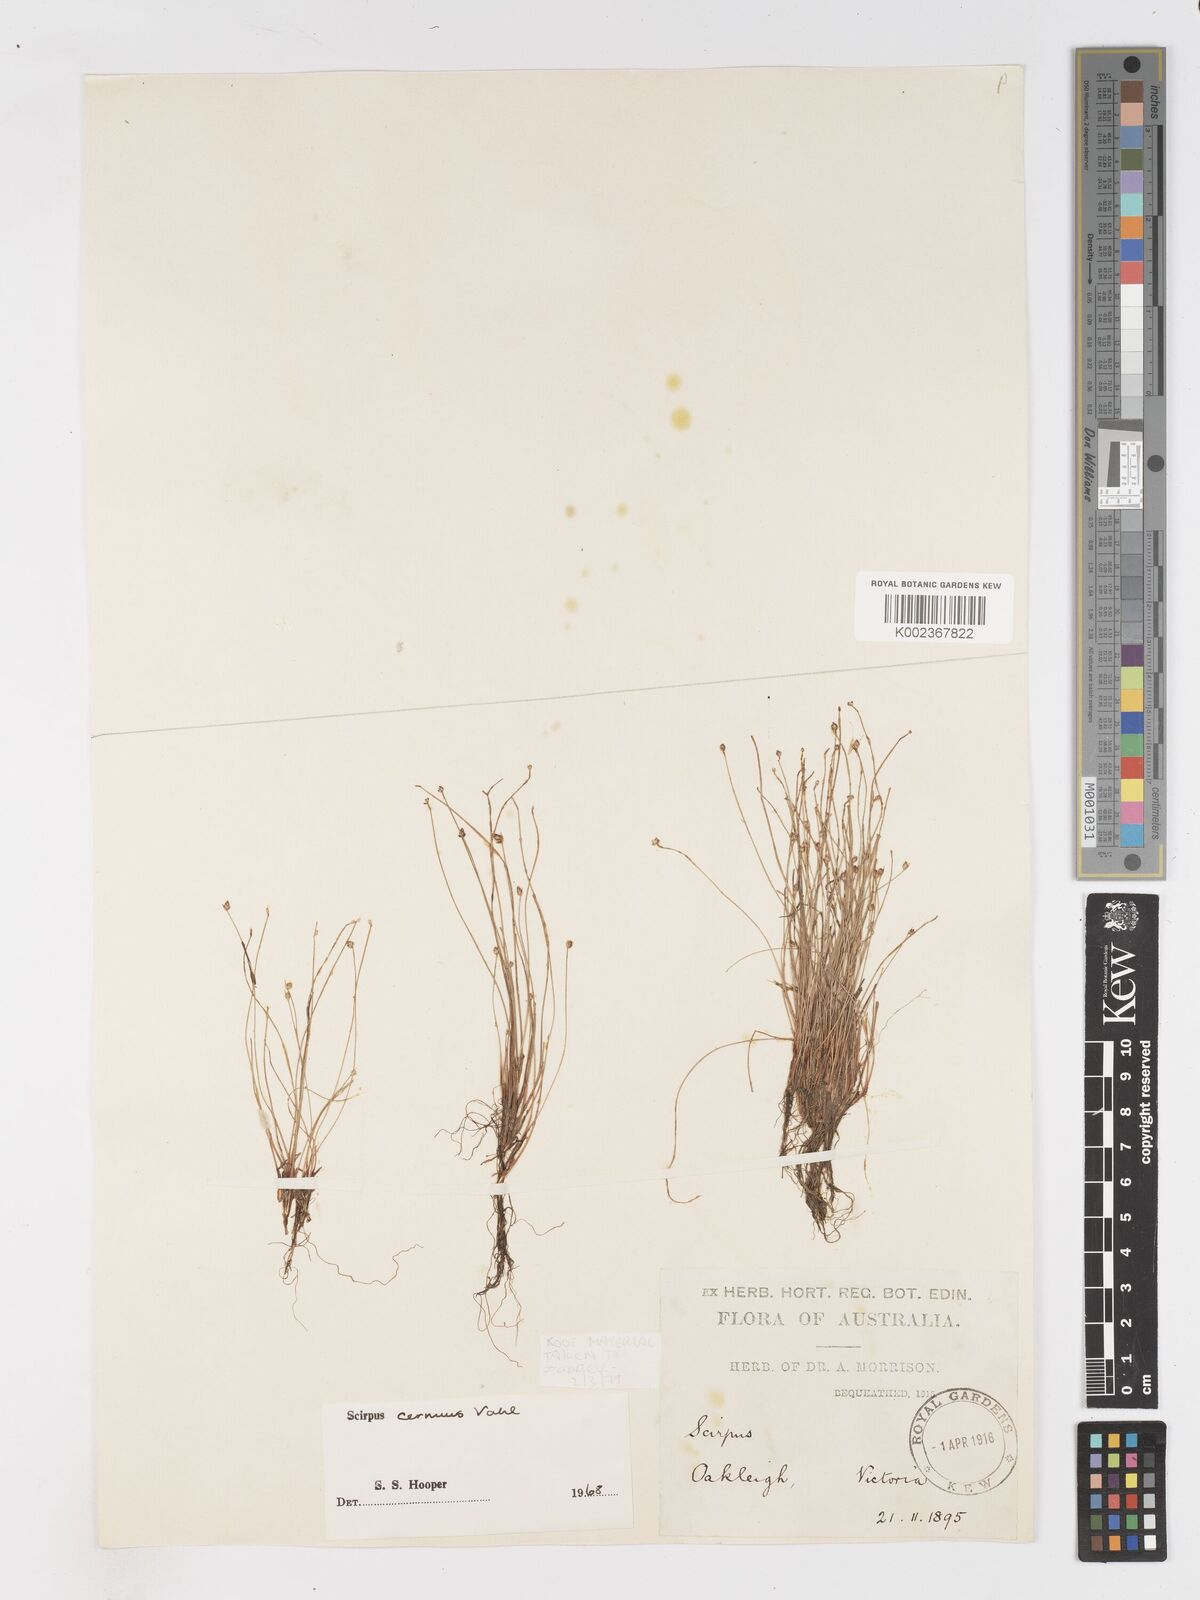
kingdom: Plantae
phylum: Tracheophyta
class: Liliopsida
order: Poales
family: Cyperaceae
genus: Isolepis
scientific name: Isolepis cernua
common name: Slender club-rush
